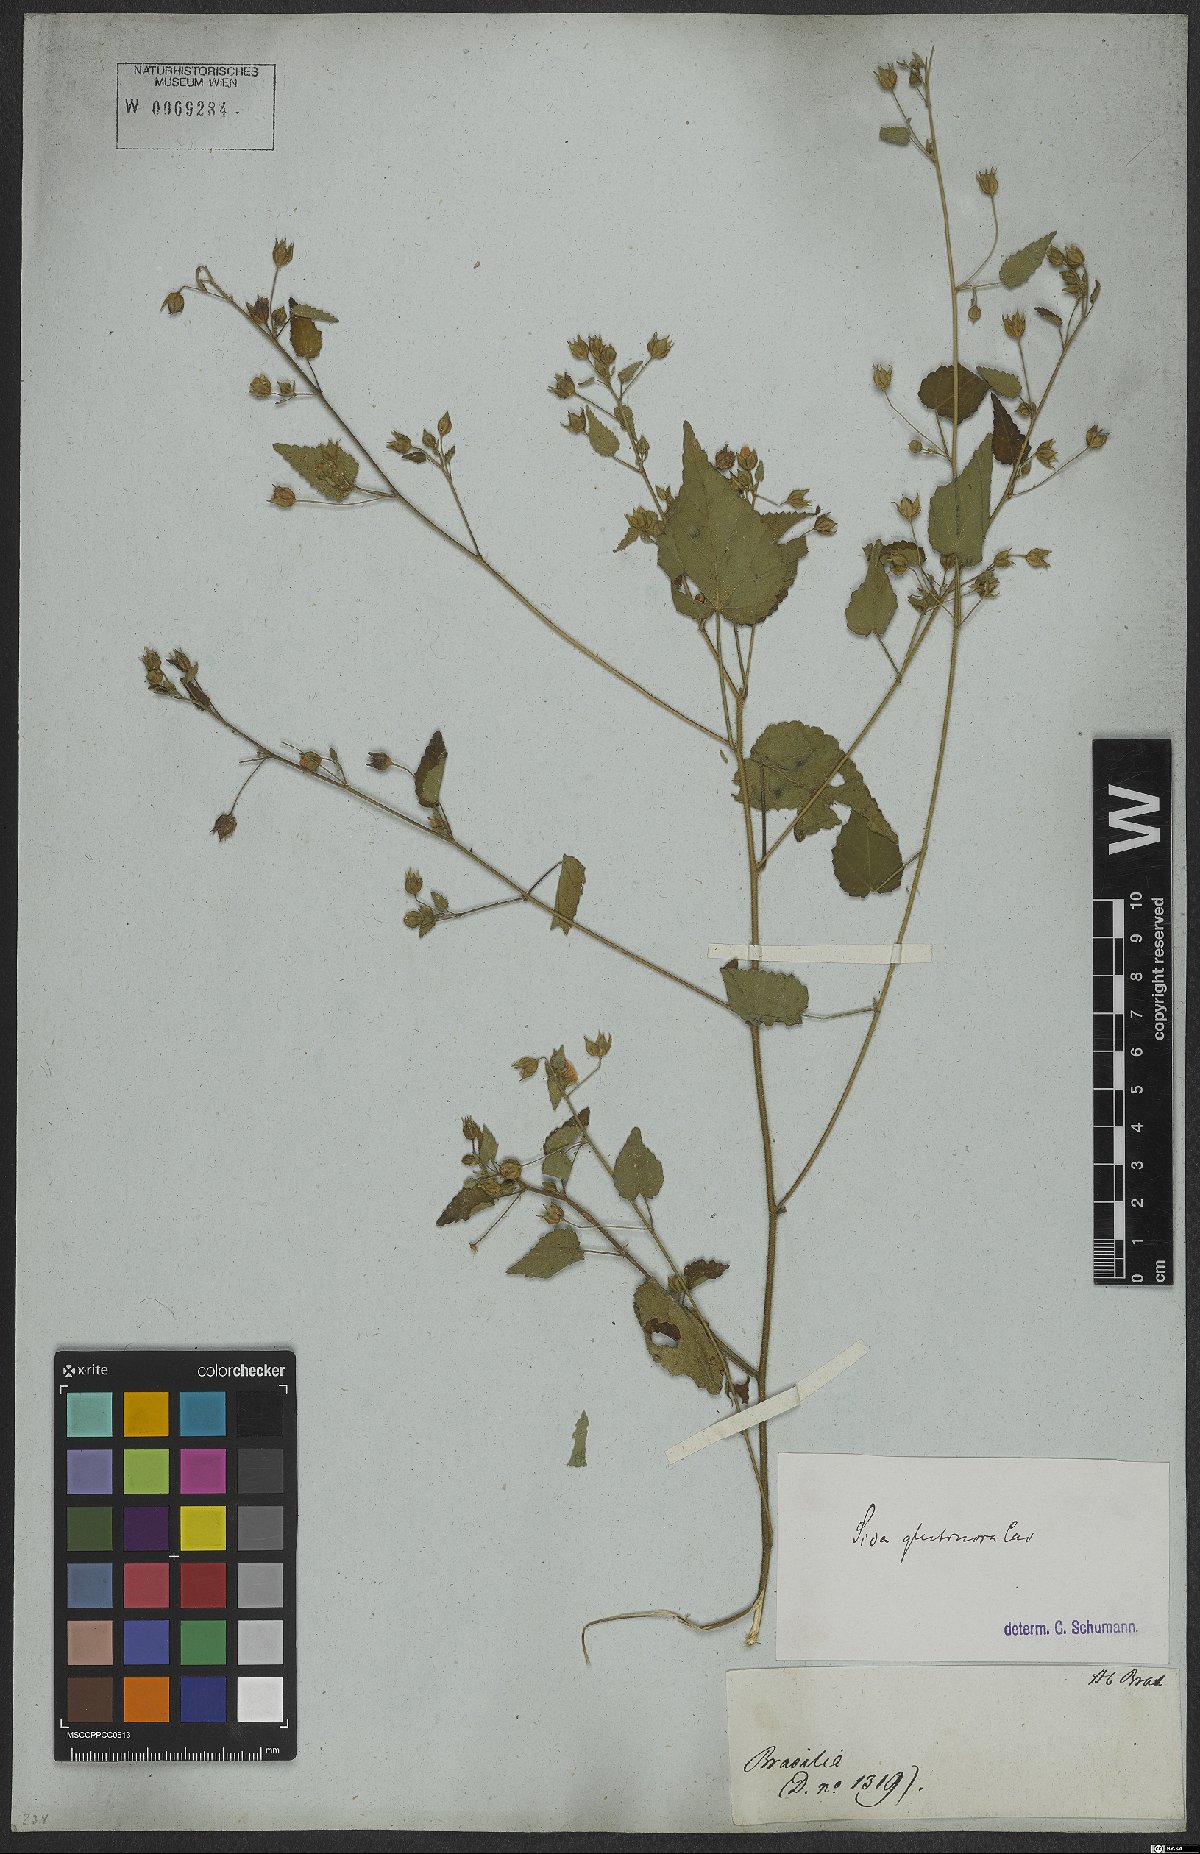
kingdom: Plantae
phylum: Tracheophyta
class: Magnoliopsida
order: Malvales
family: Malvaceae
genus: Sida
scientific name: Sida glabra
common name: Smooth fanpetals
